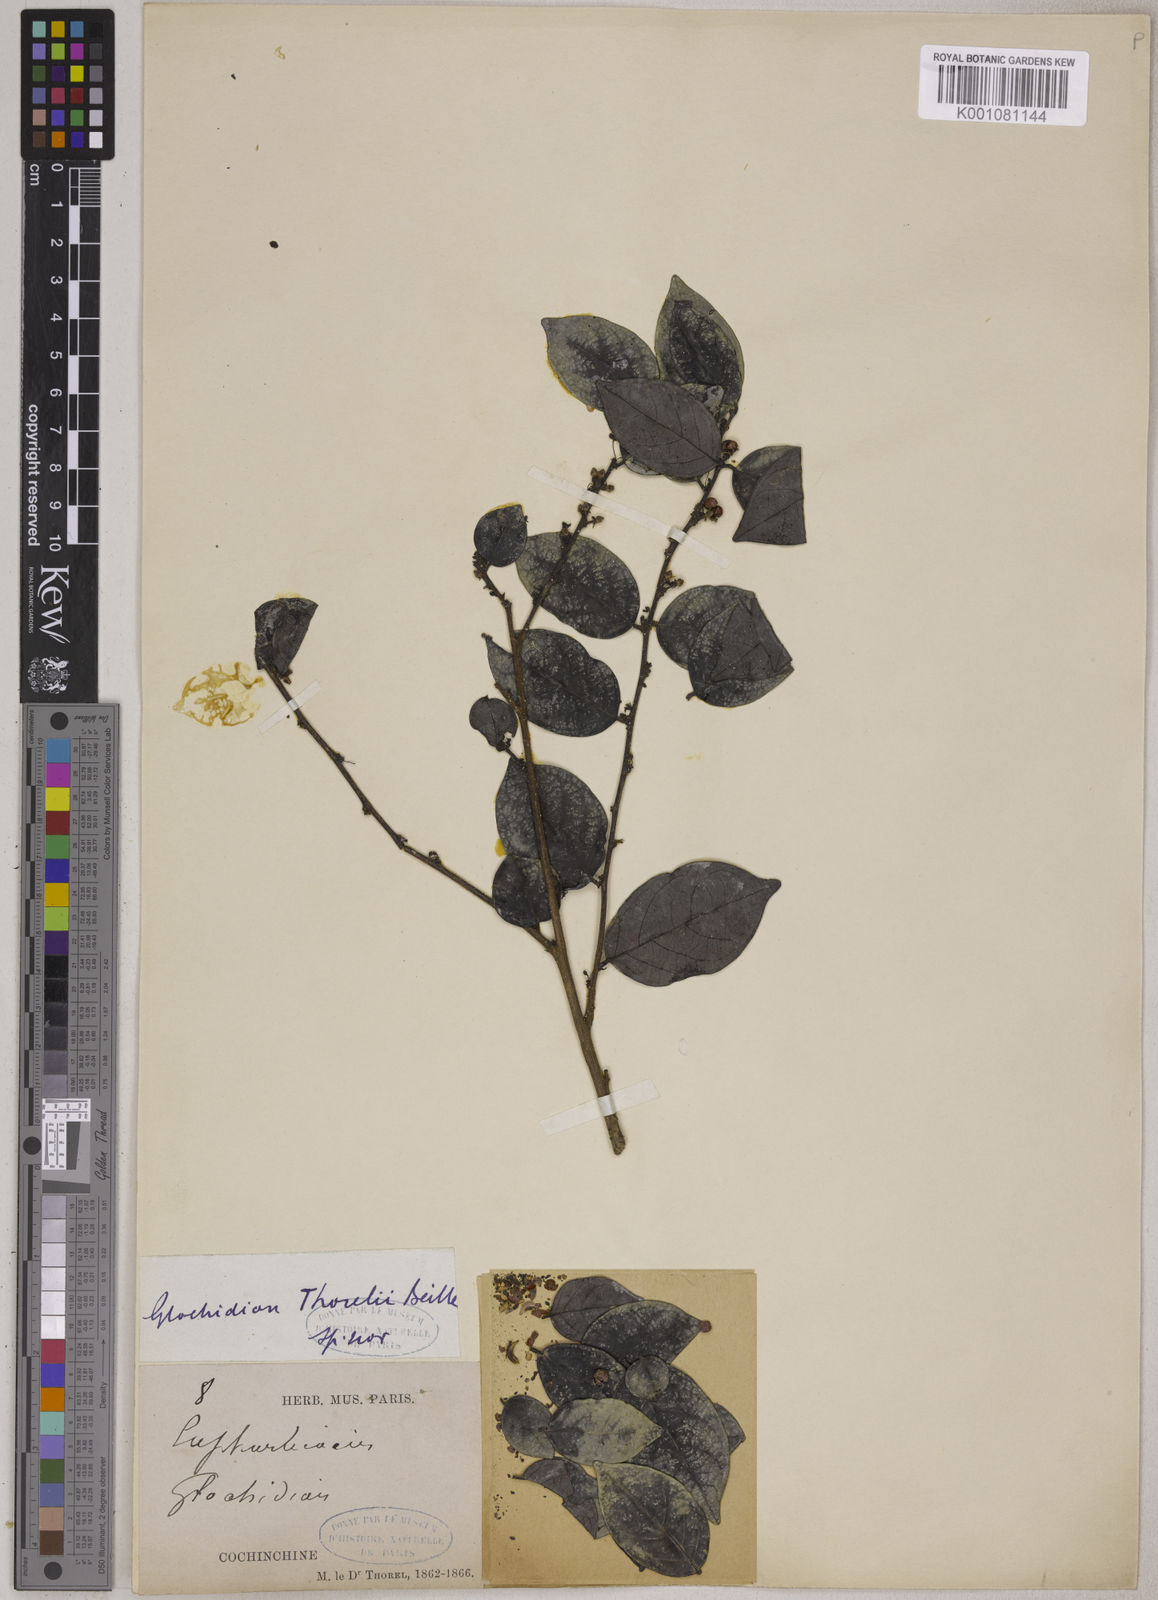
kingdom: Plantae
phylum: Tracheophyta
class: Magnoliopsida
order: Malpighiales
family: Phyllanthaceae
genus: Glochidion
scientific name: Glochidion rubrum
